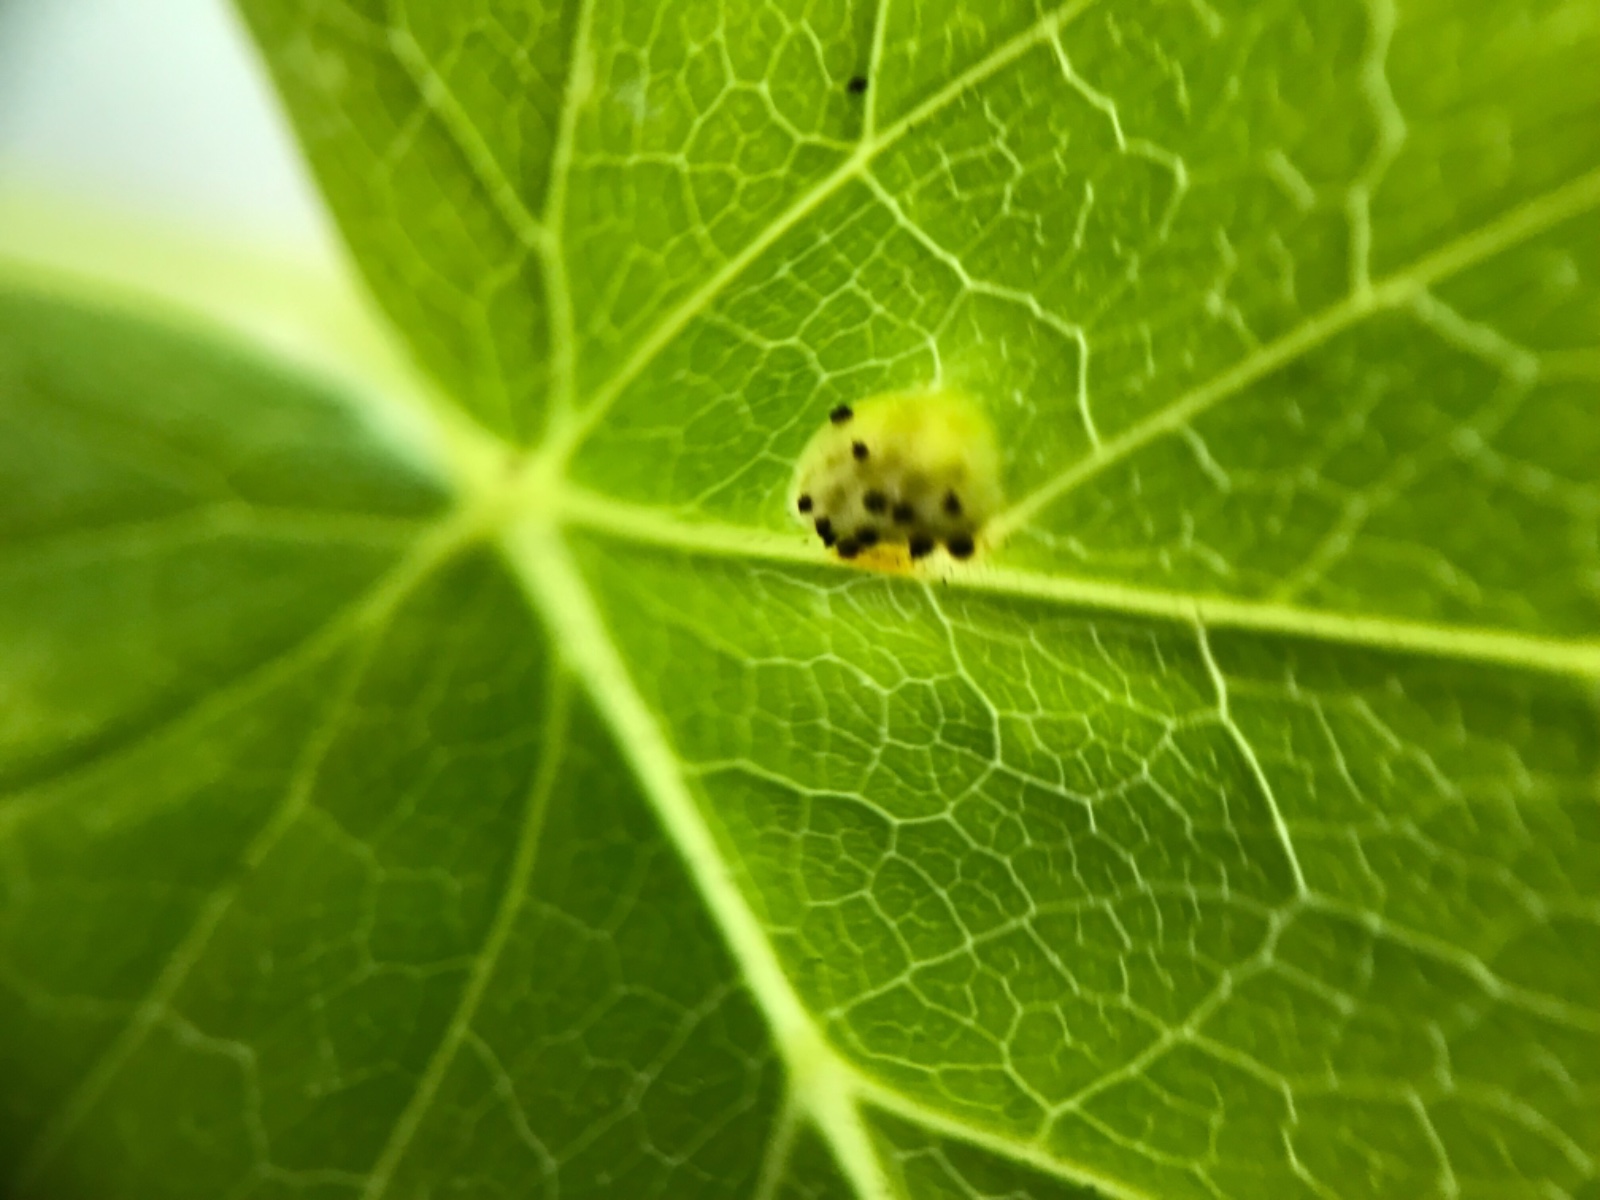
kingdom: Fungi
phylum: Basidiomycota
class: Pucciniomycetes
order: Pucciniales
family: Pucciniaceae
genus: Puccinia
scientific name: Puccinia
